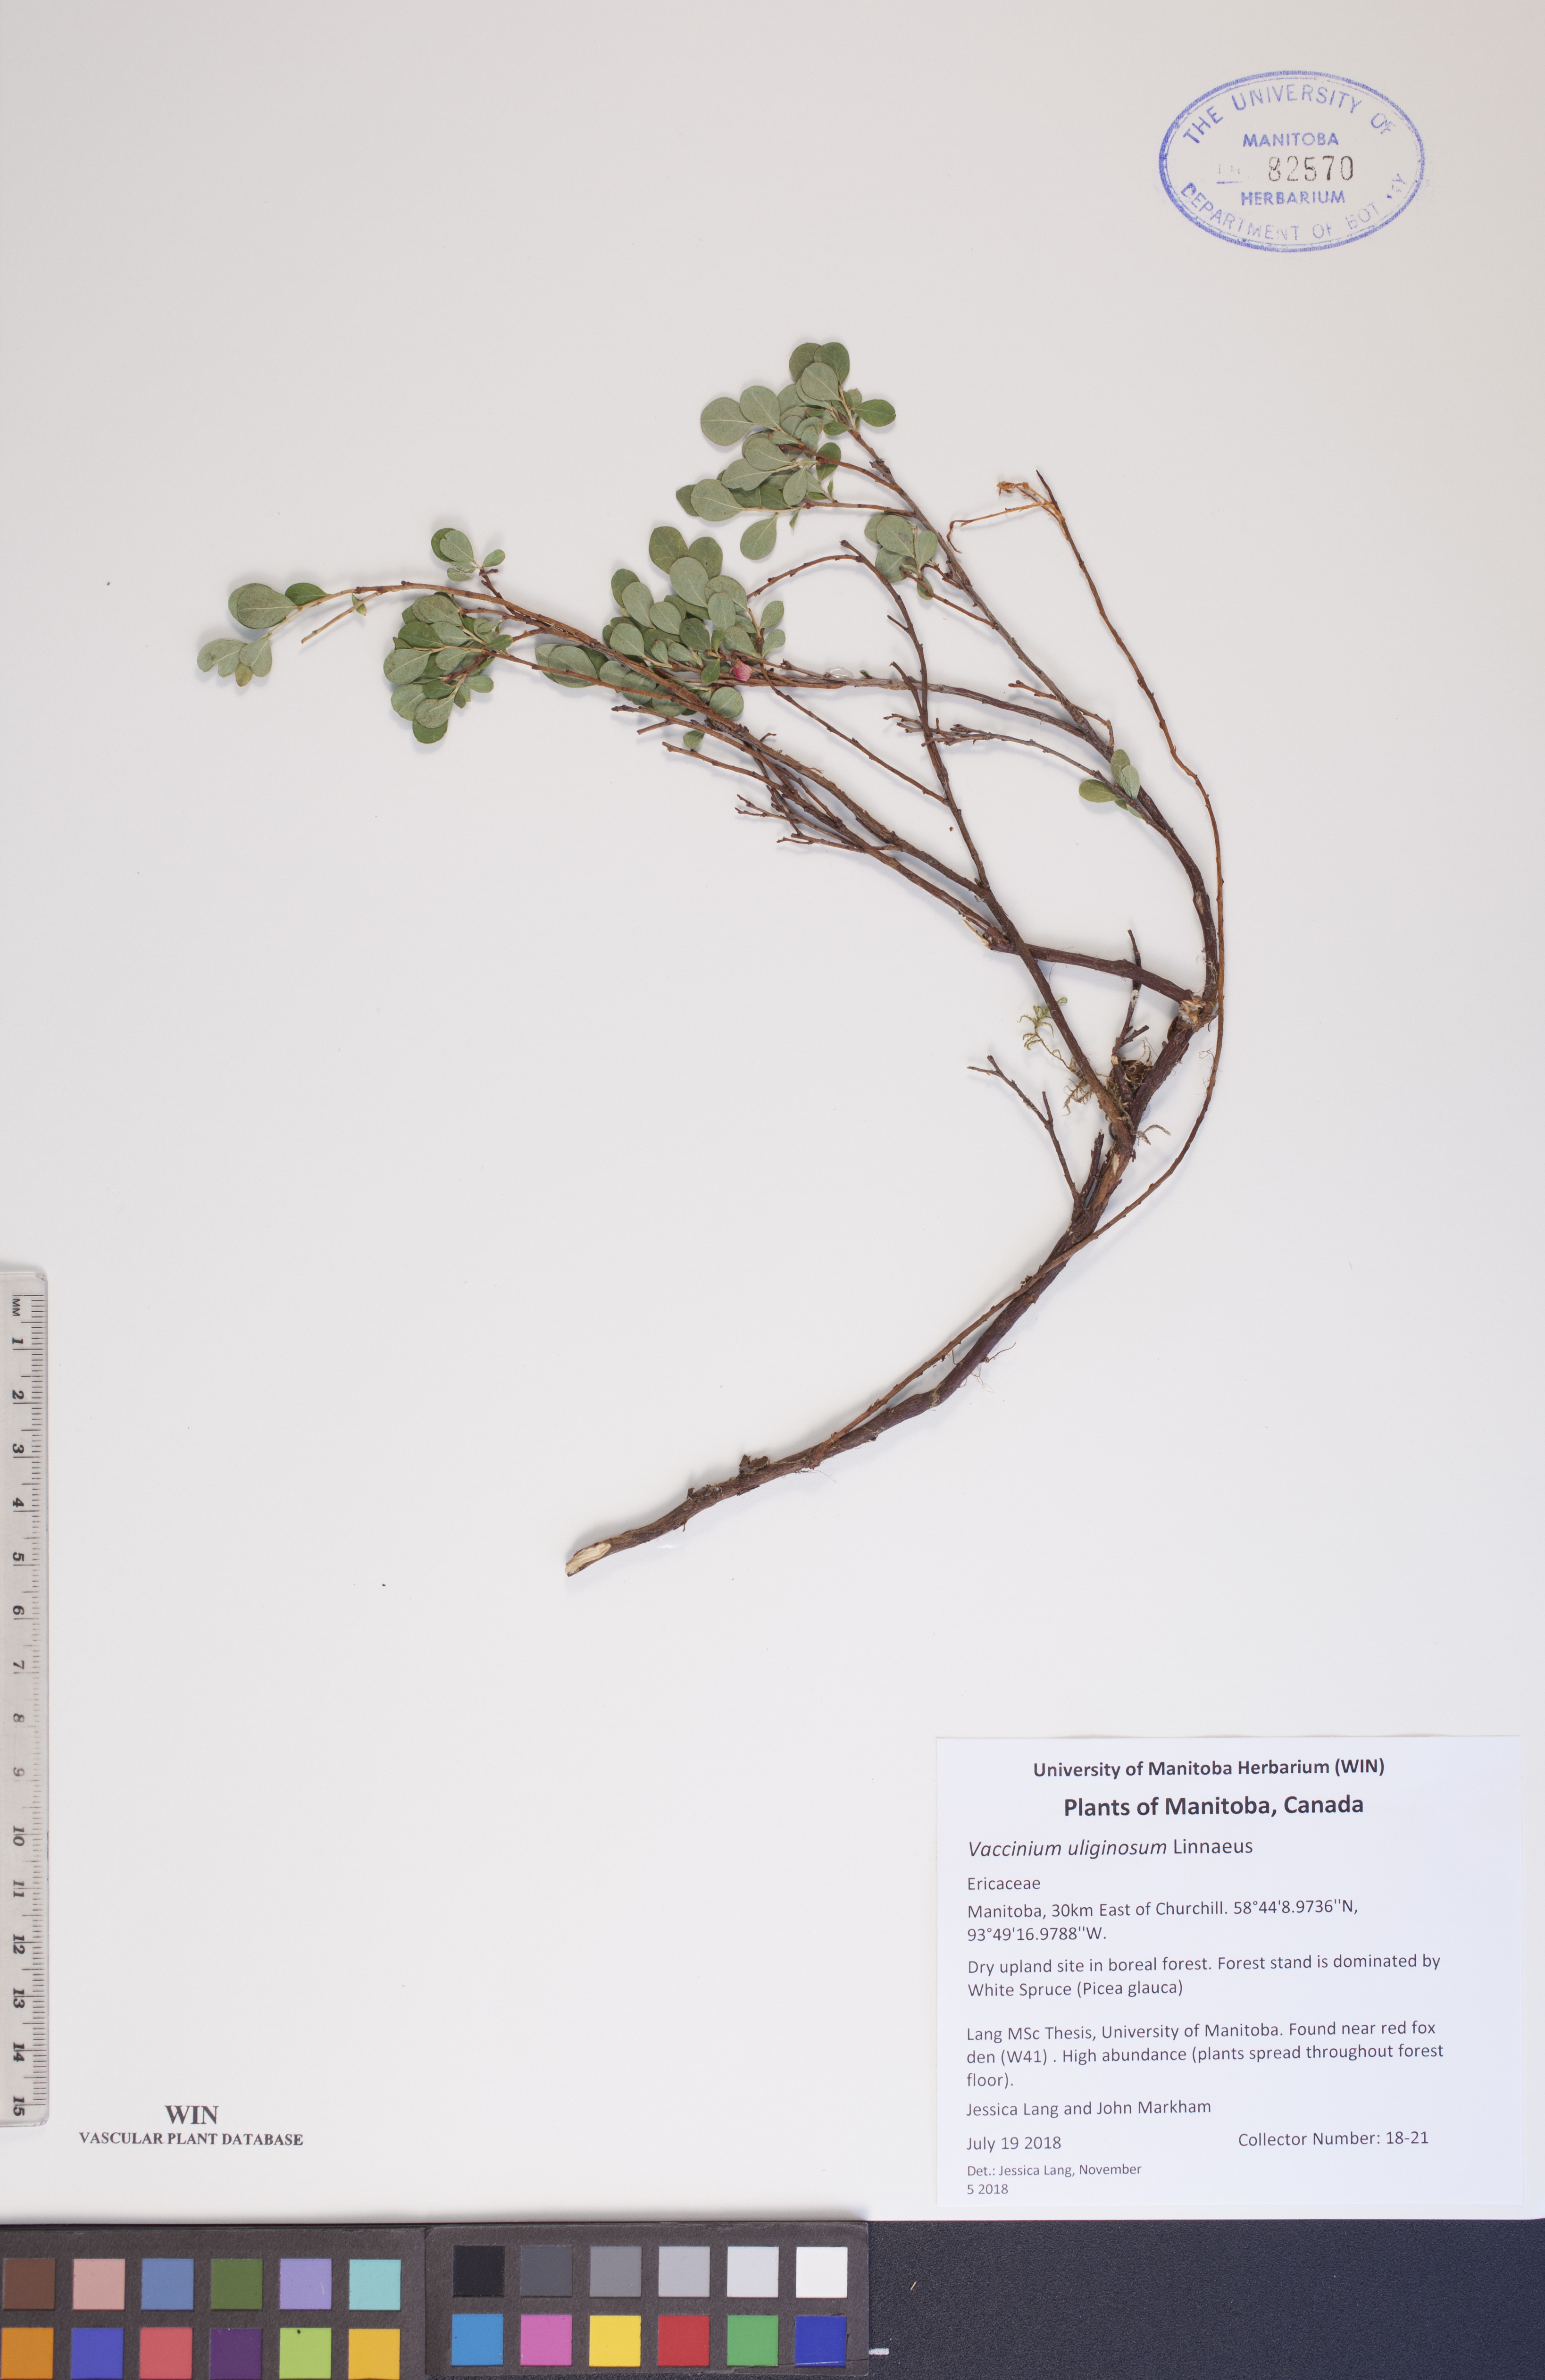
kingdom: Plantae
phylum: Tracheophyta
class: Magnoliopsida
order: Ericales
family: Ericaceae
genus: Vaccinium
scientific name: Vaccinium uliginosum
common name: Bog bilberry
